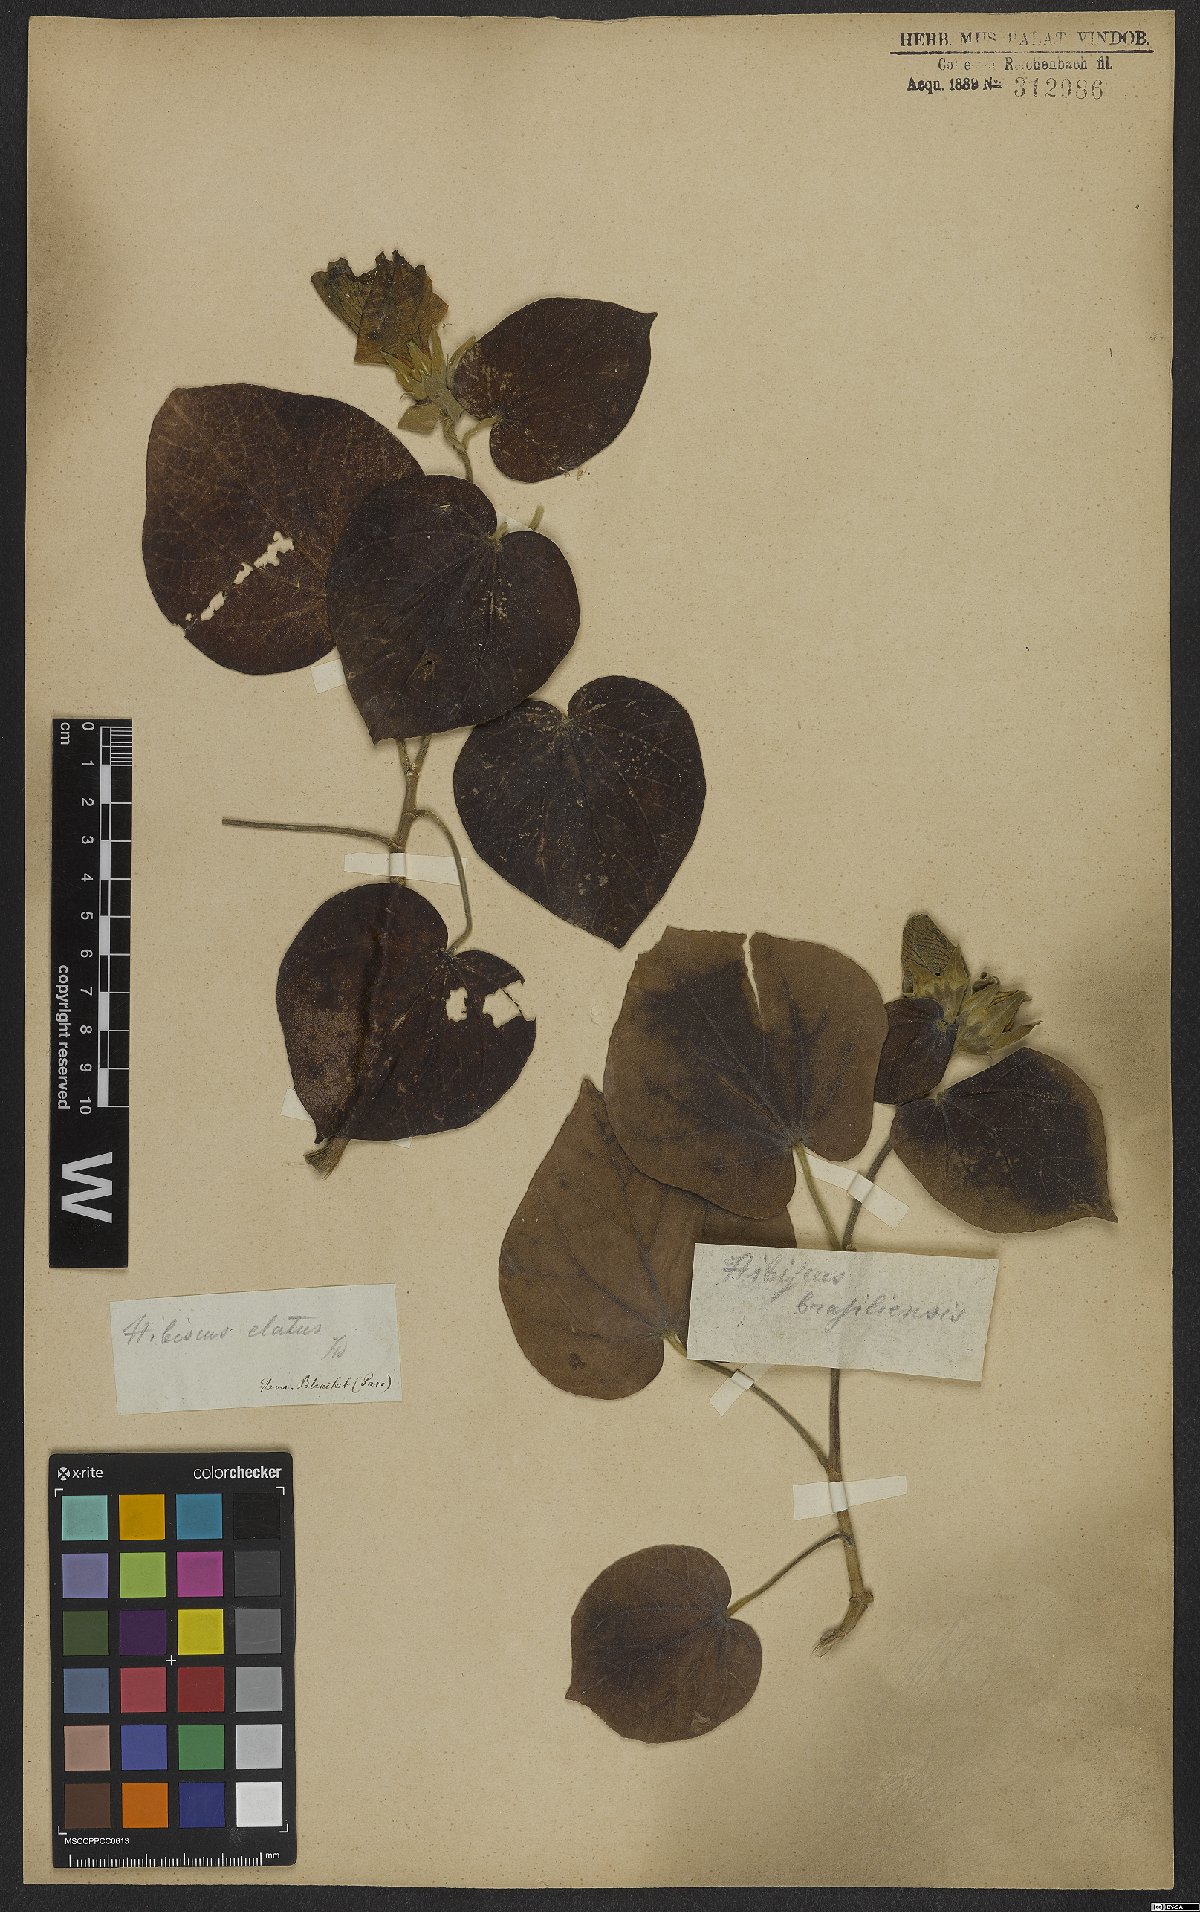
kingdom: Plantae
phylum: Tracheophyta
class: Magnoliopsida
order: Malvales
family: Malvaceae
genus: Talipariti
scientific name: Talipariti tiliaceum
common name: Sea hibiscus
